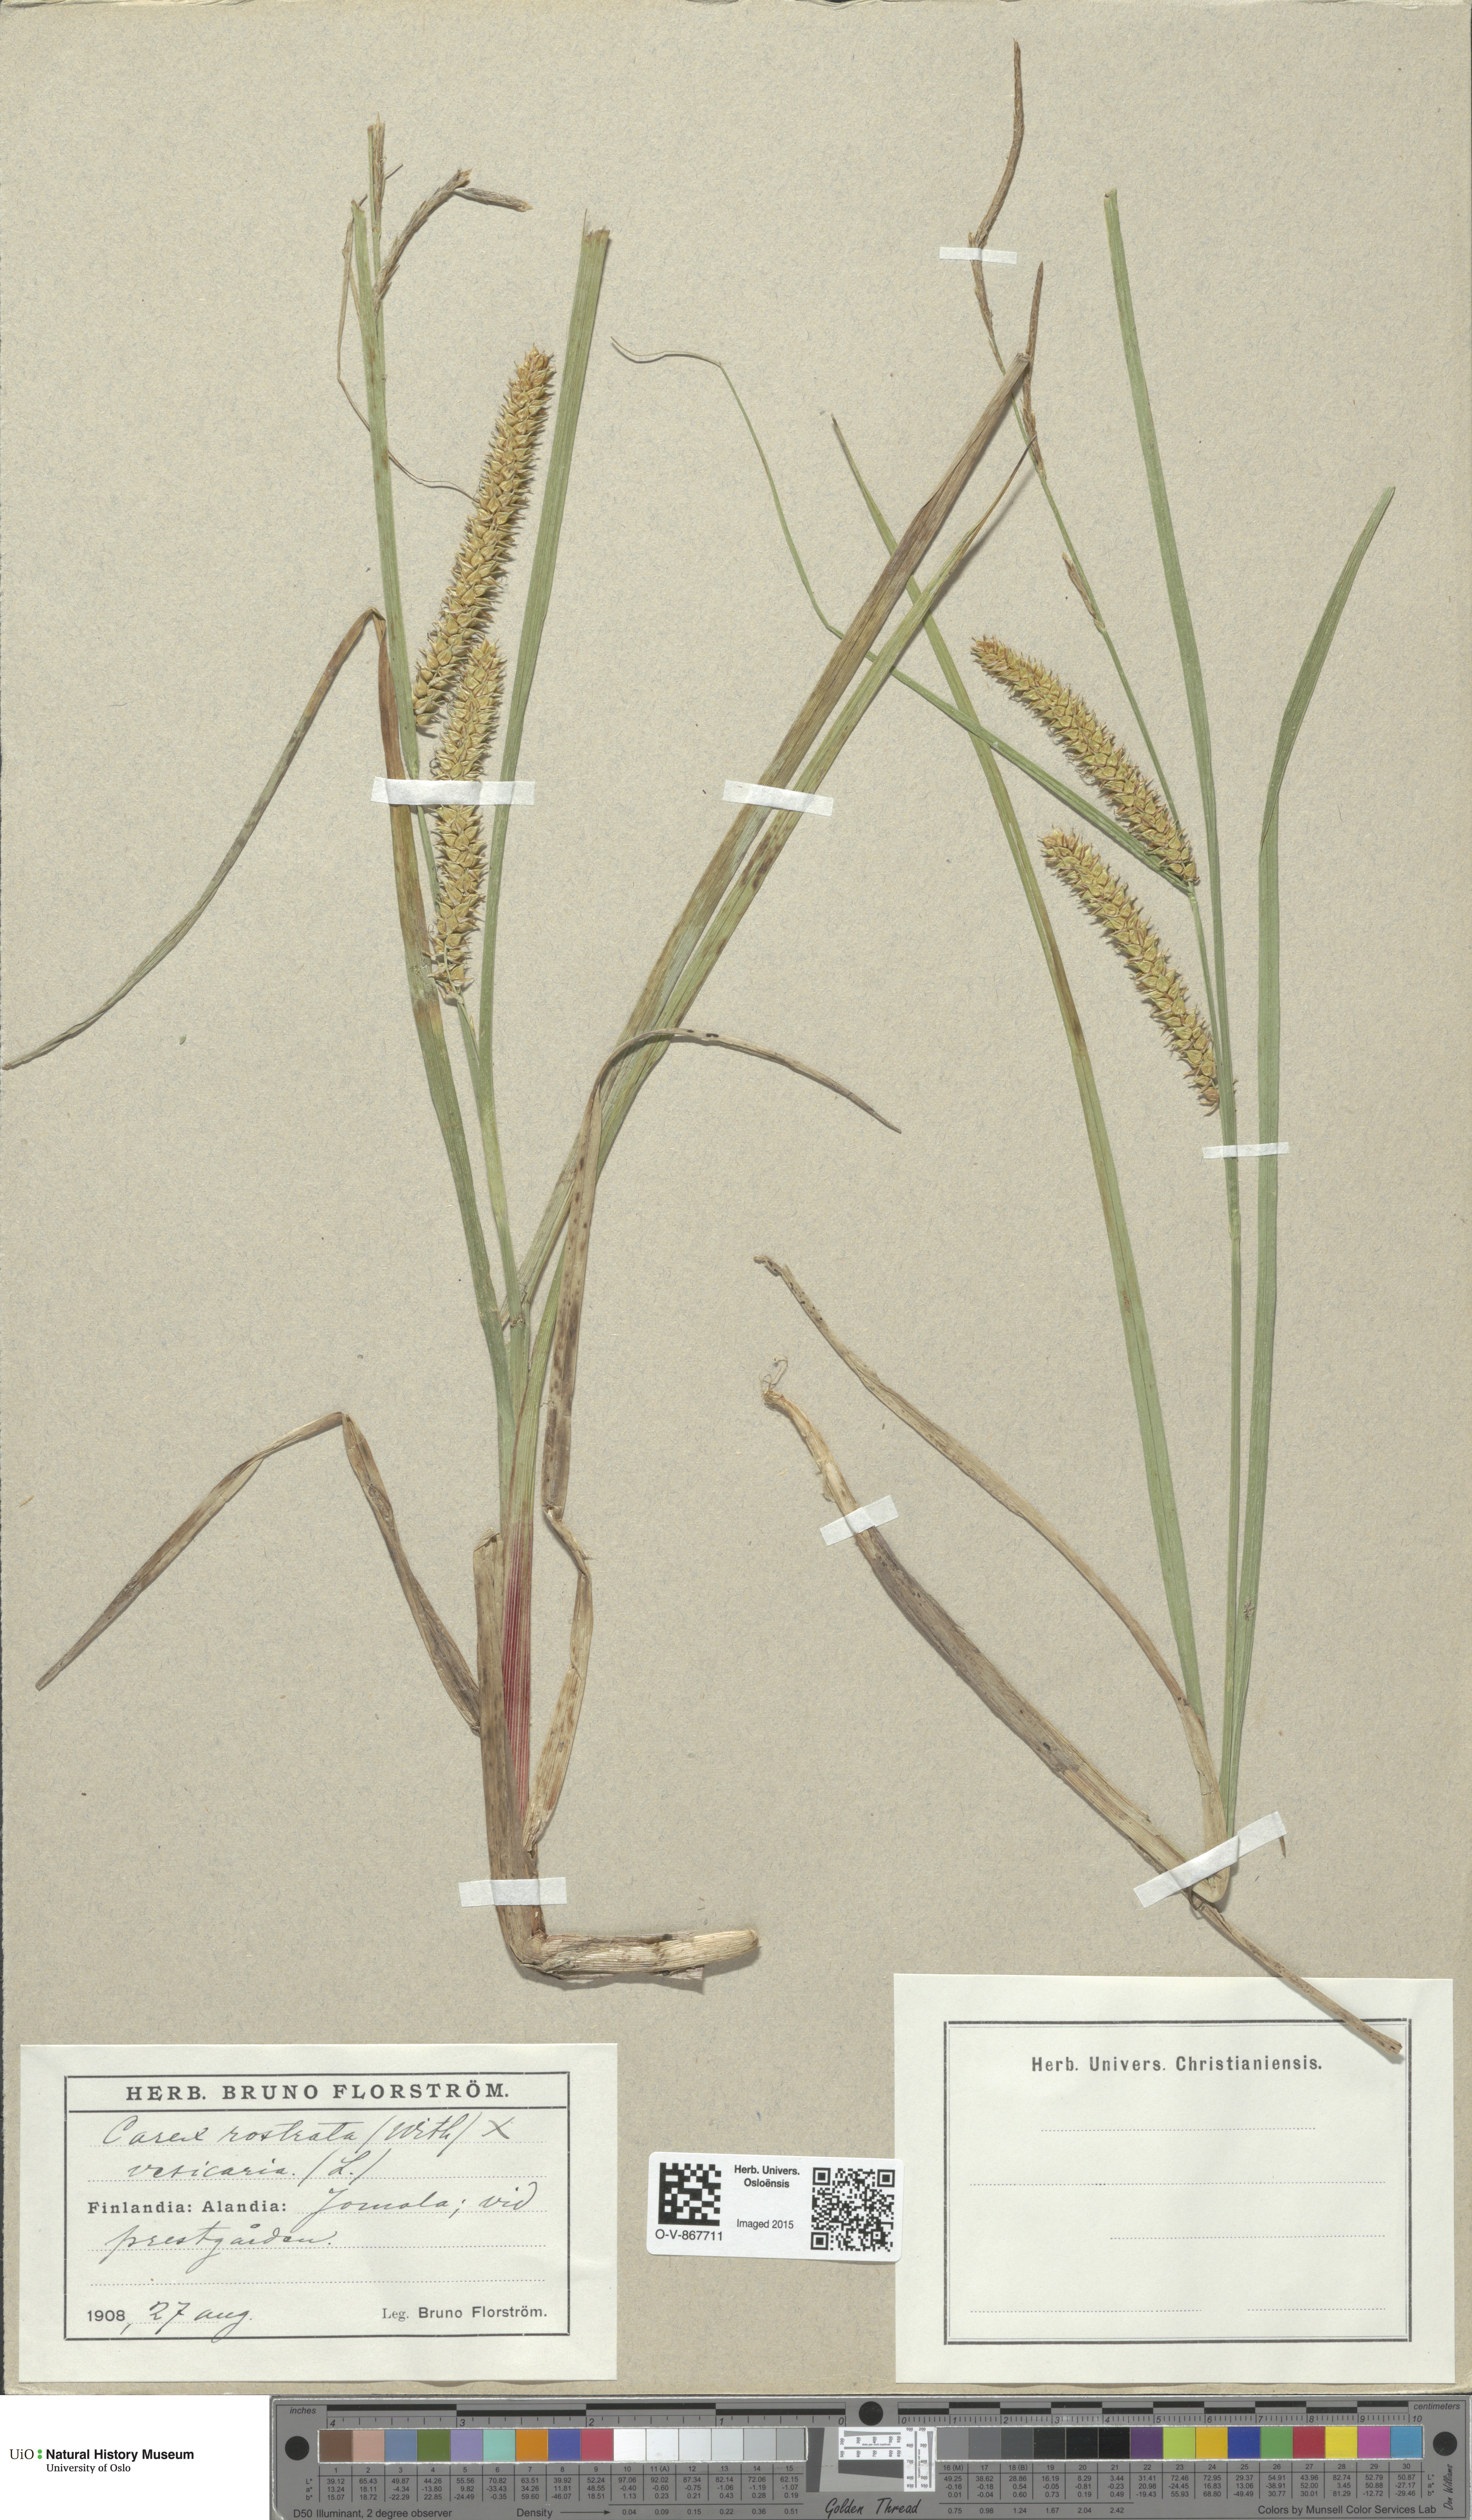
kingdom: Plantae
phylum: Tracheophyta
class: Liliopsida
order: Poales
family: Cyperaceae
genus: Carex
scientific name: Carex
